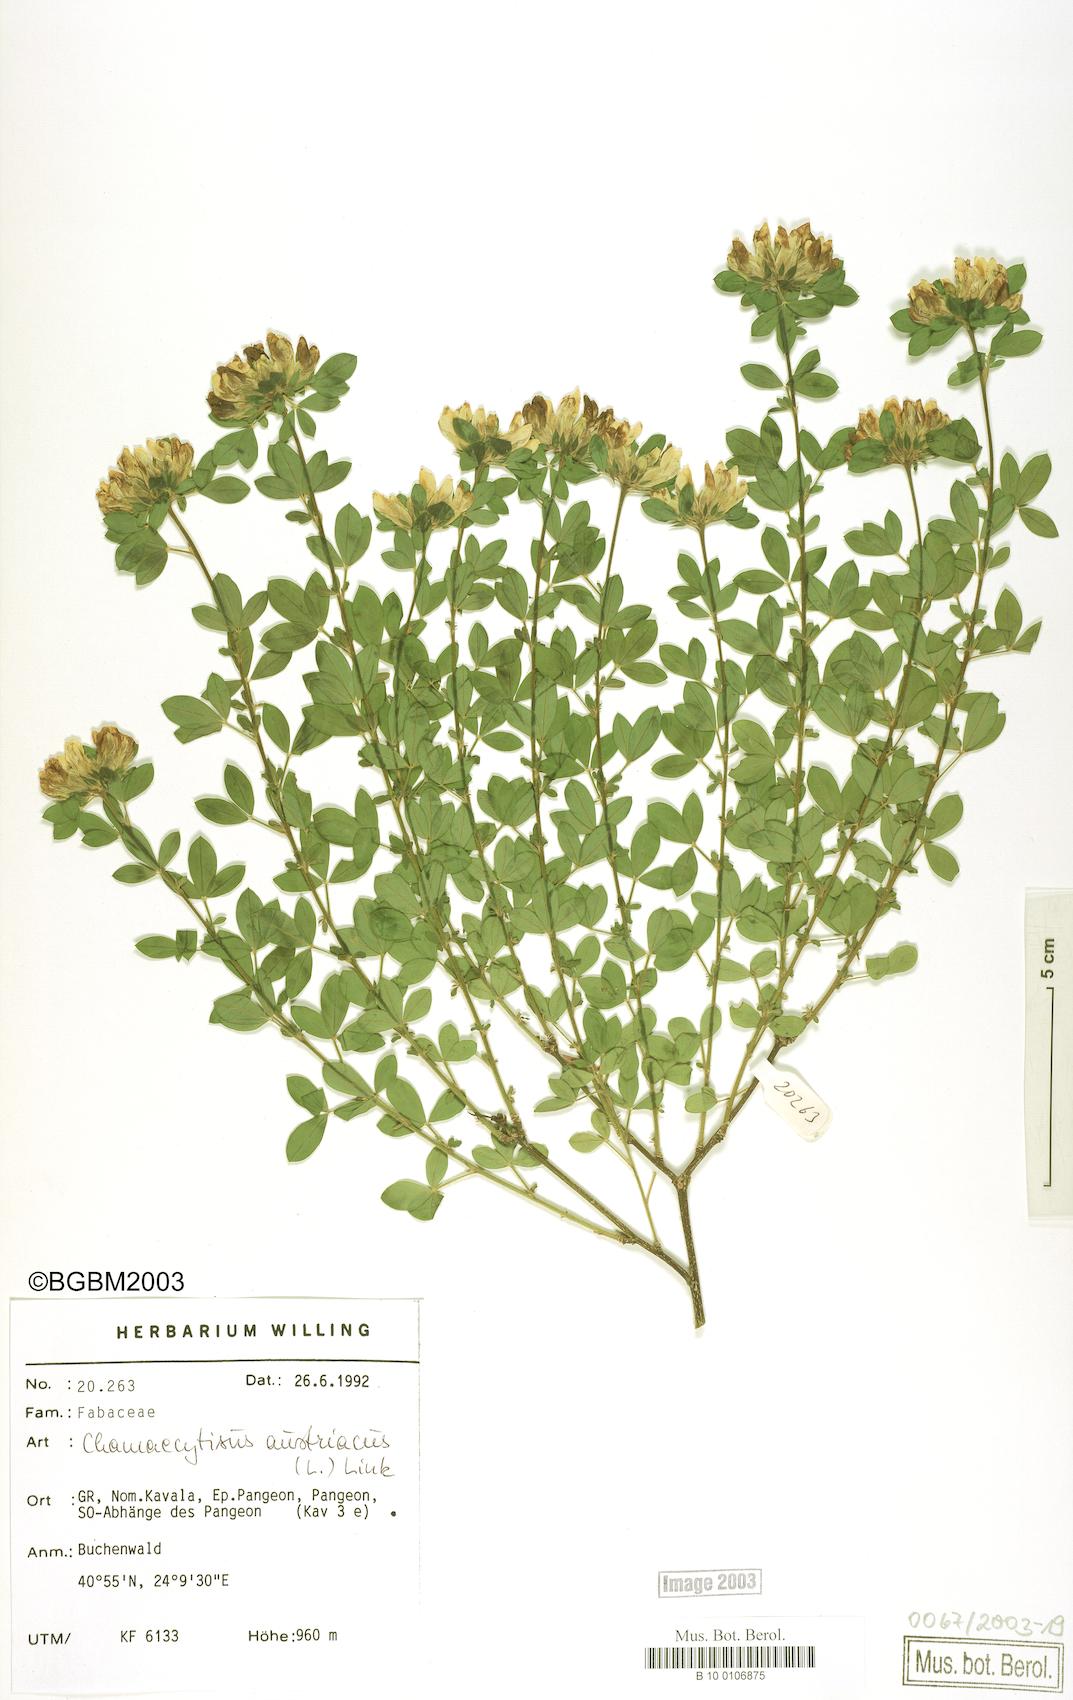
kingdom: Plantae
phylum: Tracheophyta
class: Magnoliopsida
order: Fabales
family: Fabaceae
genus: Chamaecytisus
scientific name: Chamaecytisus austriacus
